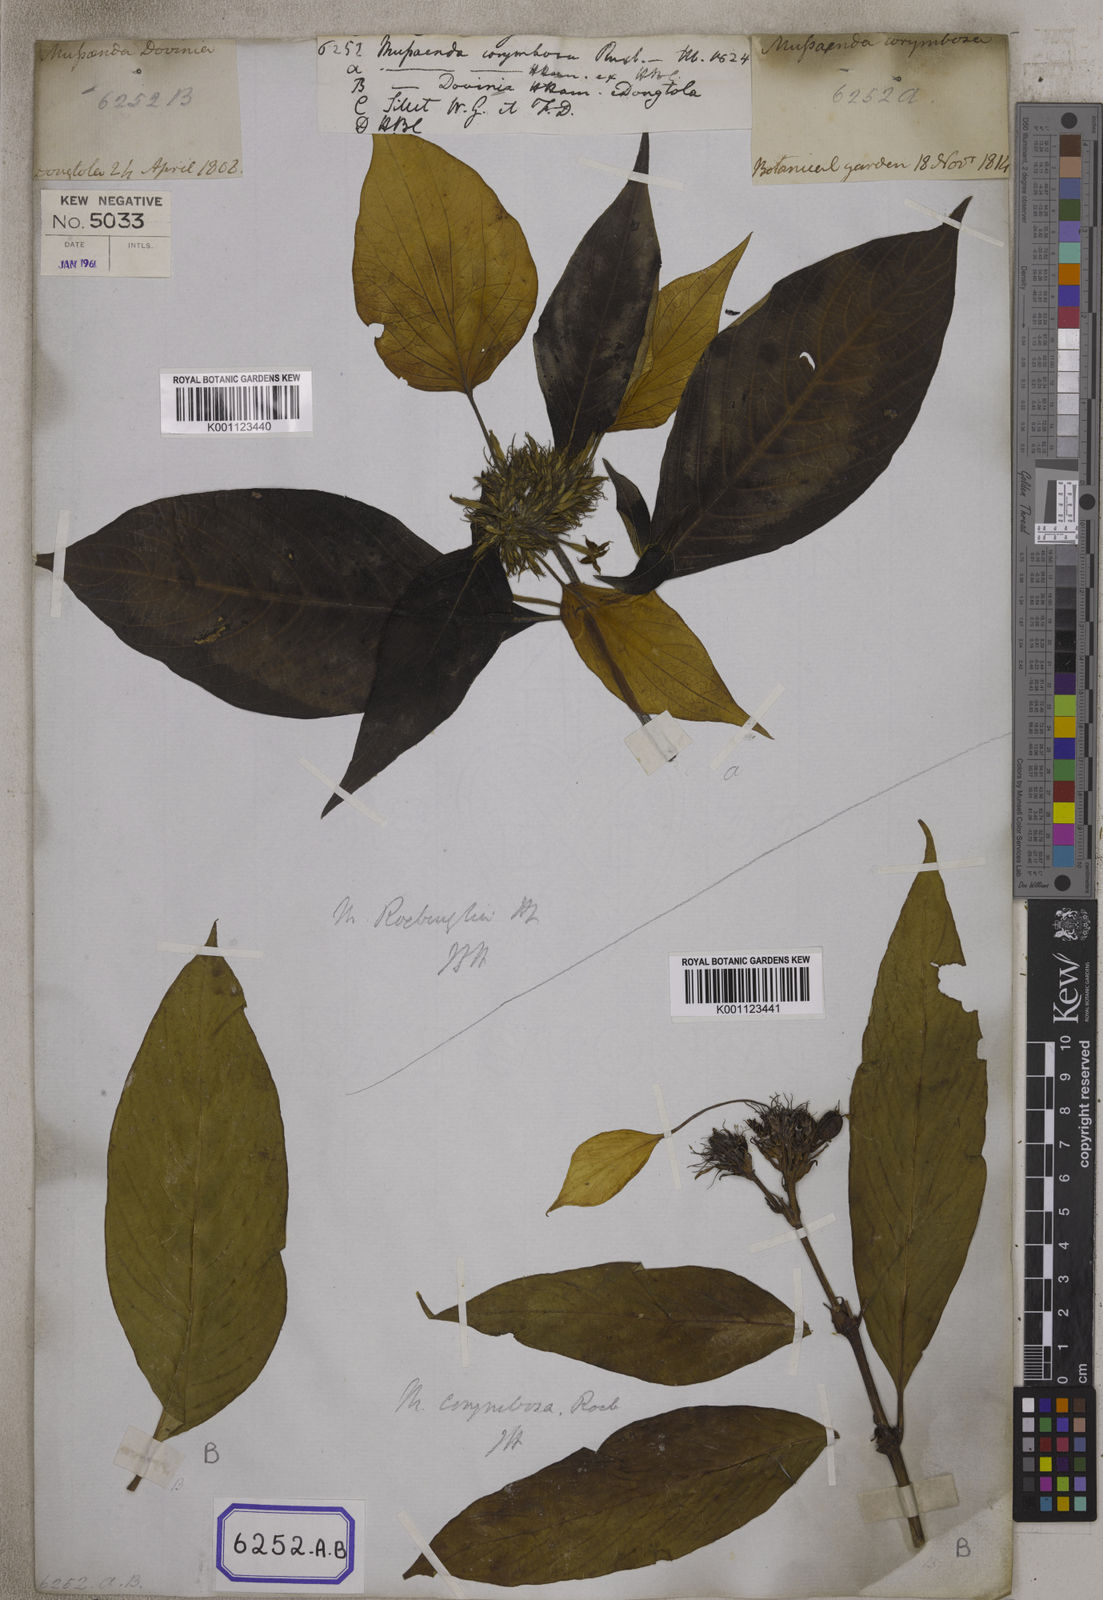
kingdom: Plantae
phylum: Tracheophyta
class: Magnoliopsida
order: Gentianales
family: Rubiaceae
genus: Mussaenda
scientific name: Mussaenda
